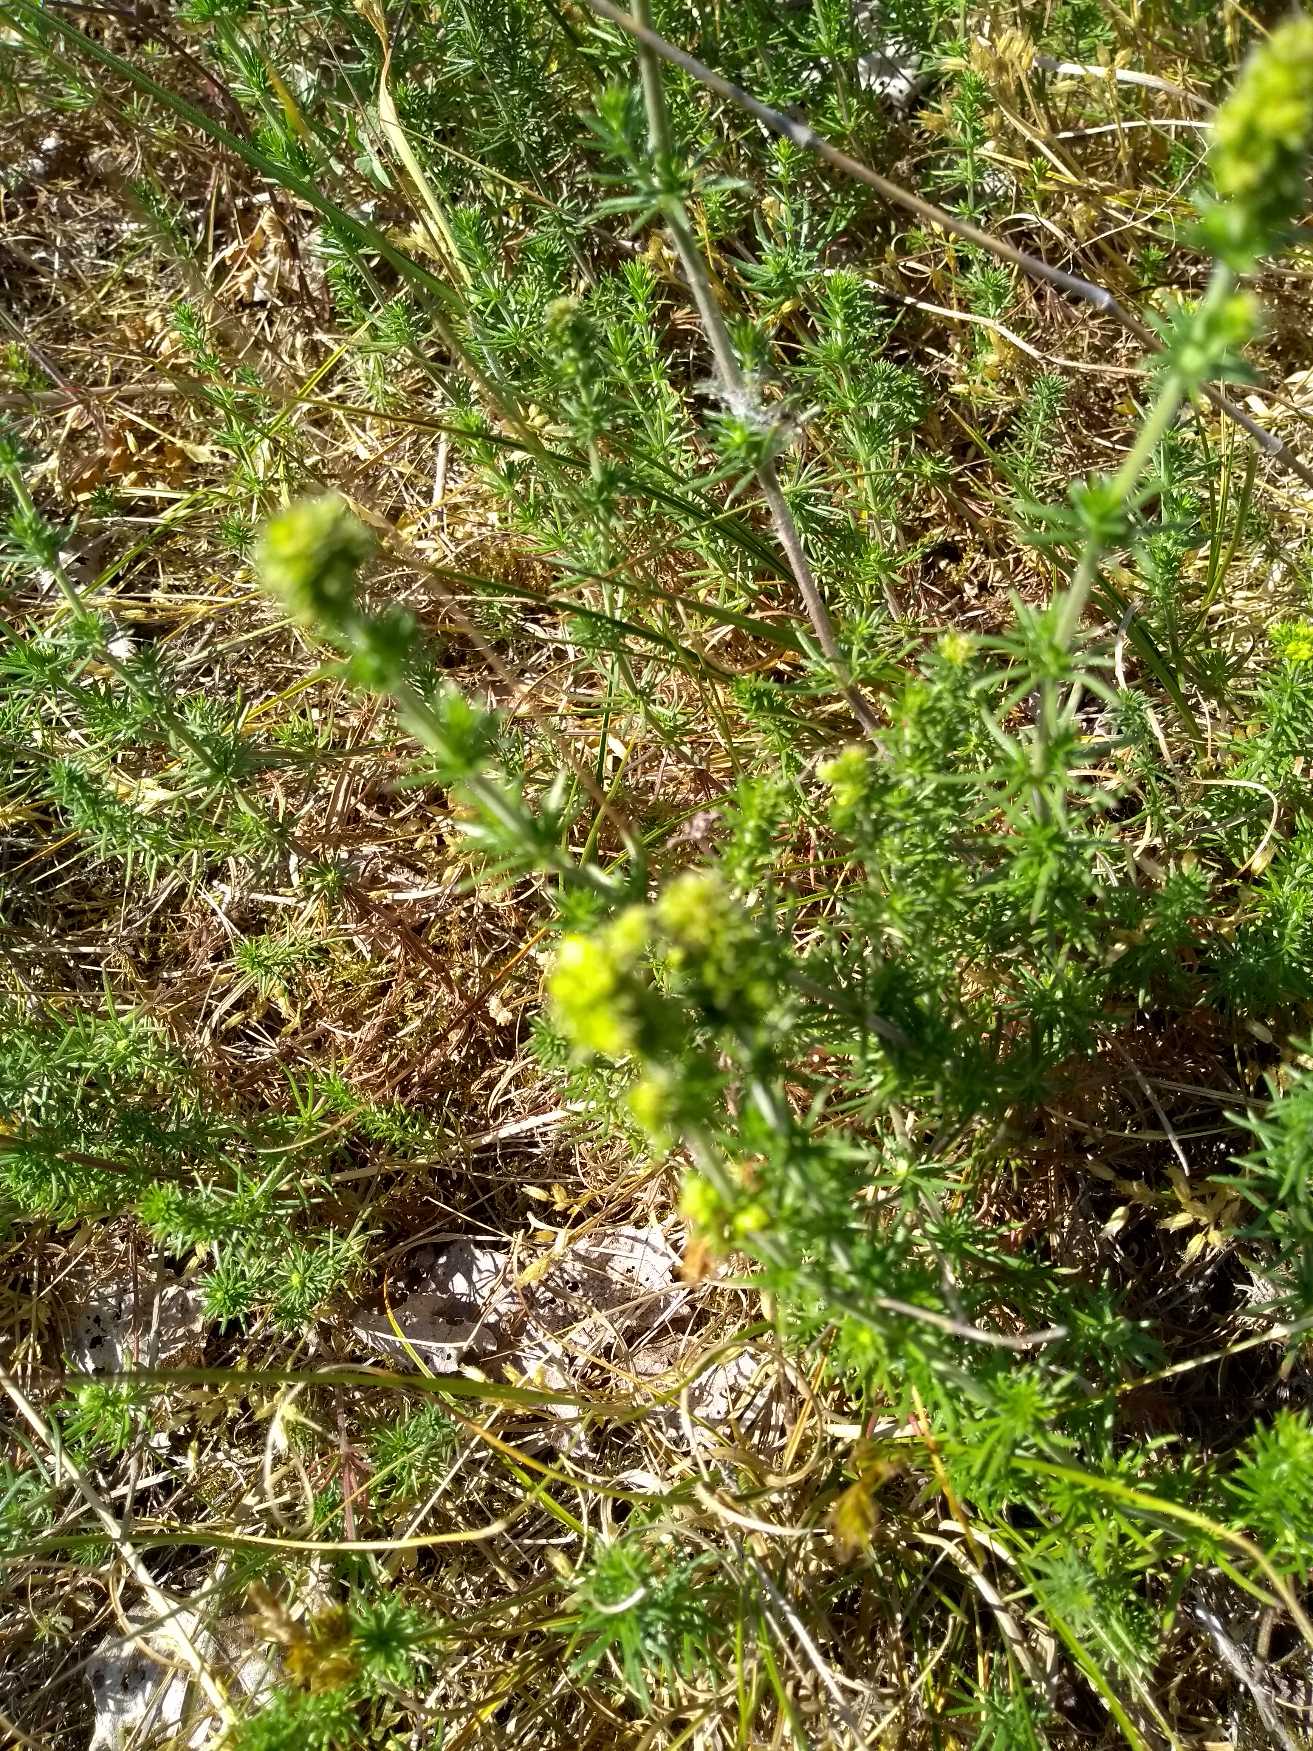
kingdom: Plantae
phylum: Tracheophyta
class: Magnoliopsida
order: Gentianales
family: Rubiaceae
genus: Galium
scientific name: Galium verum
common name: Gul snerre
